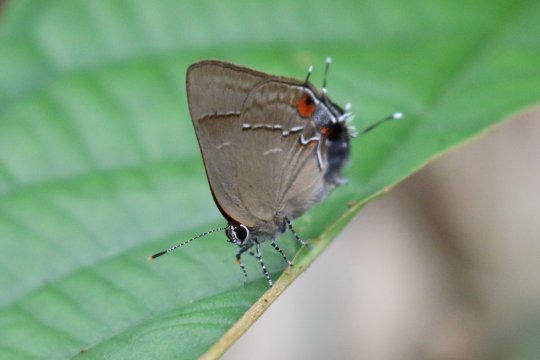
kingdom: Animalia
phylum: Arthropoda
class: Insecta
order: Lepidoptera
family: Lycaenidae
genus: Thecla
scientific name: Thecla orcidia
